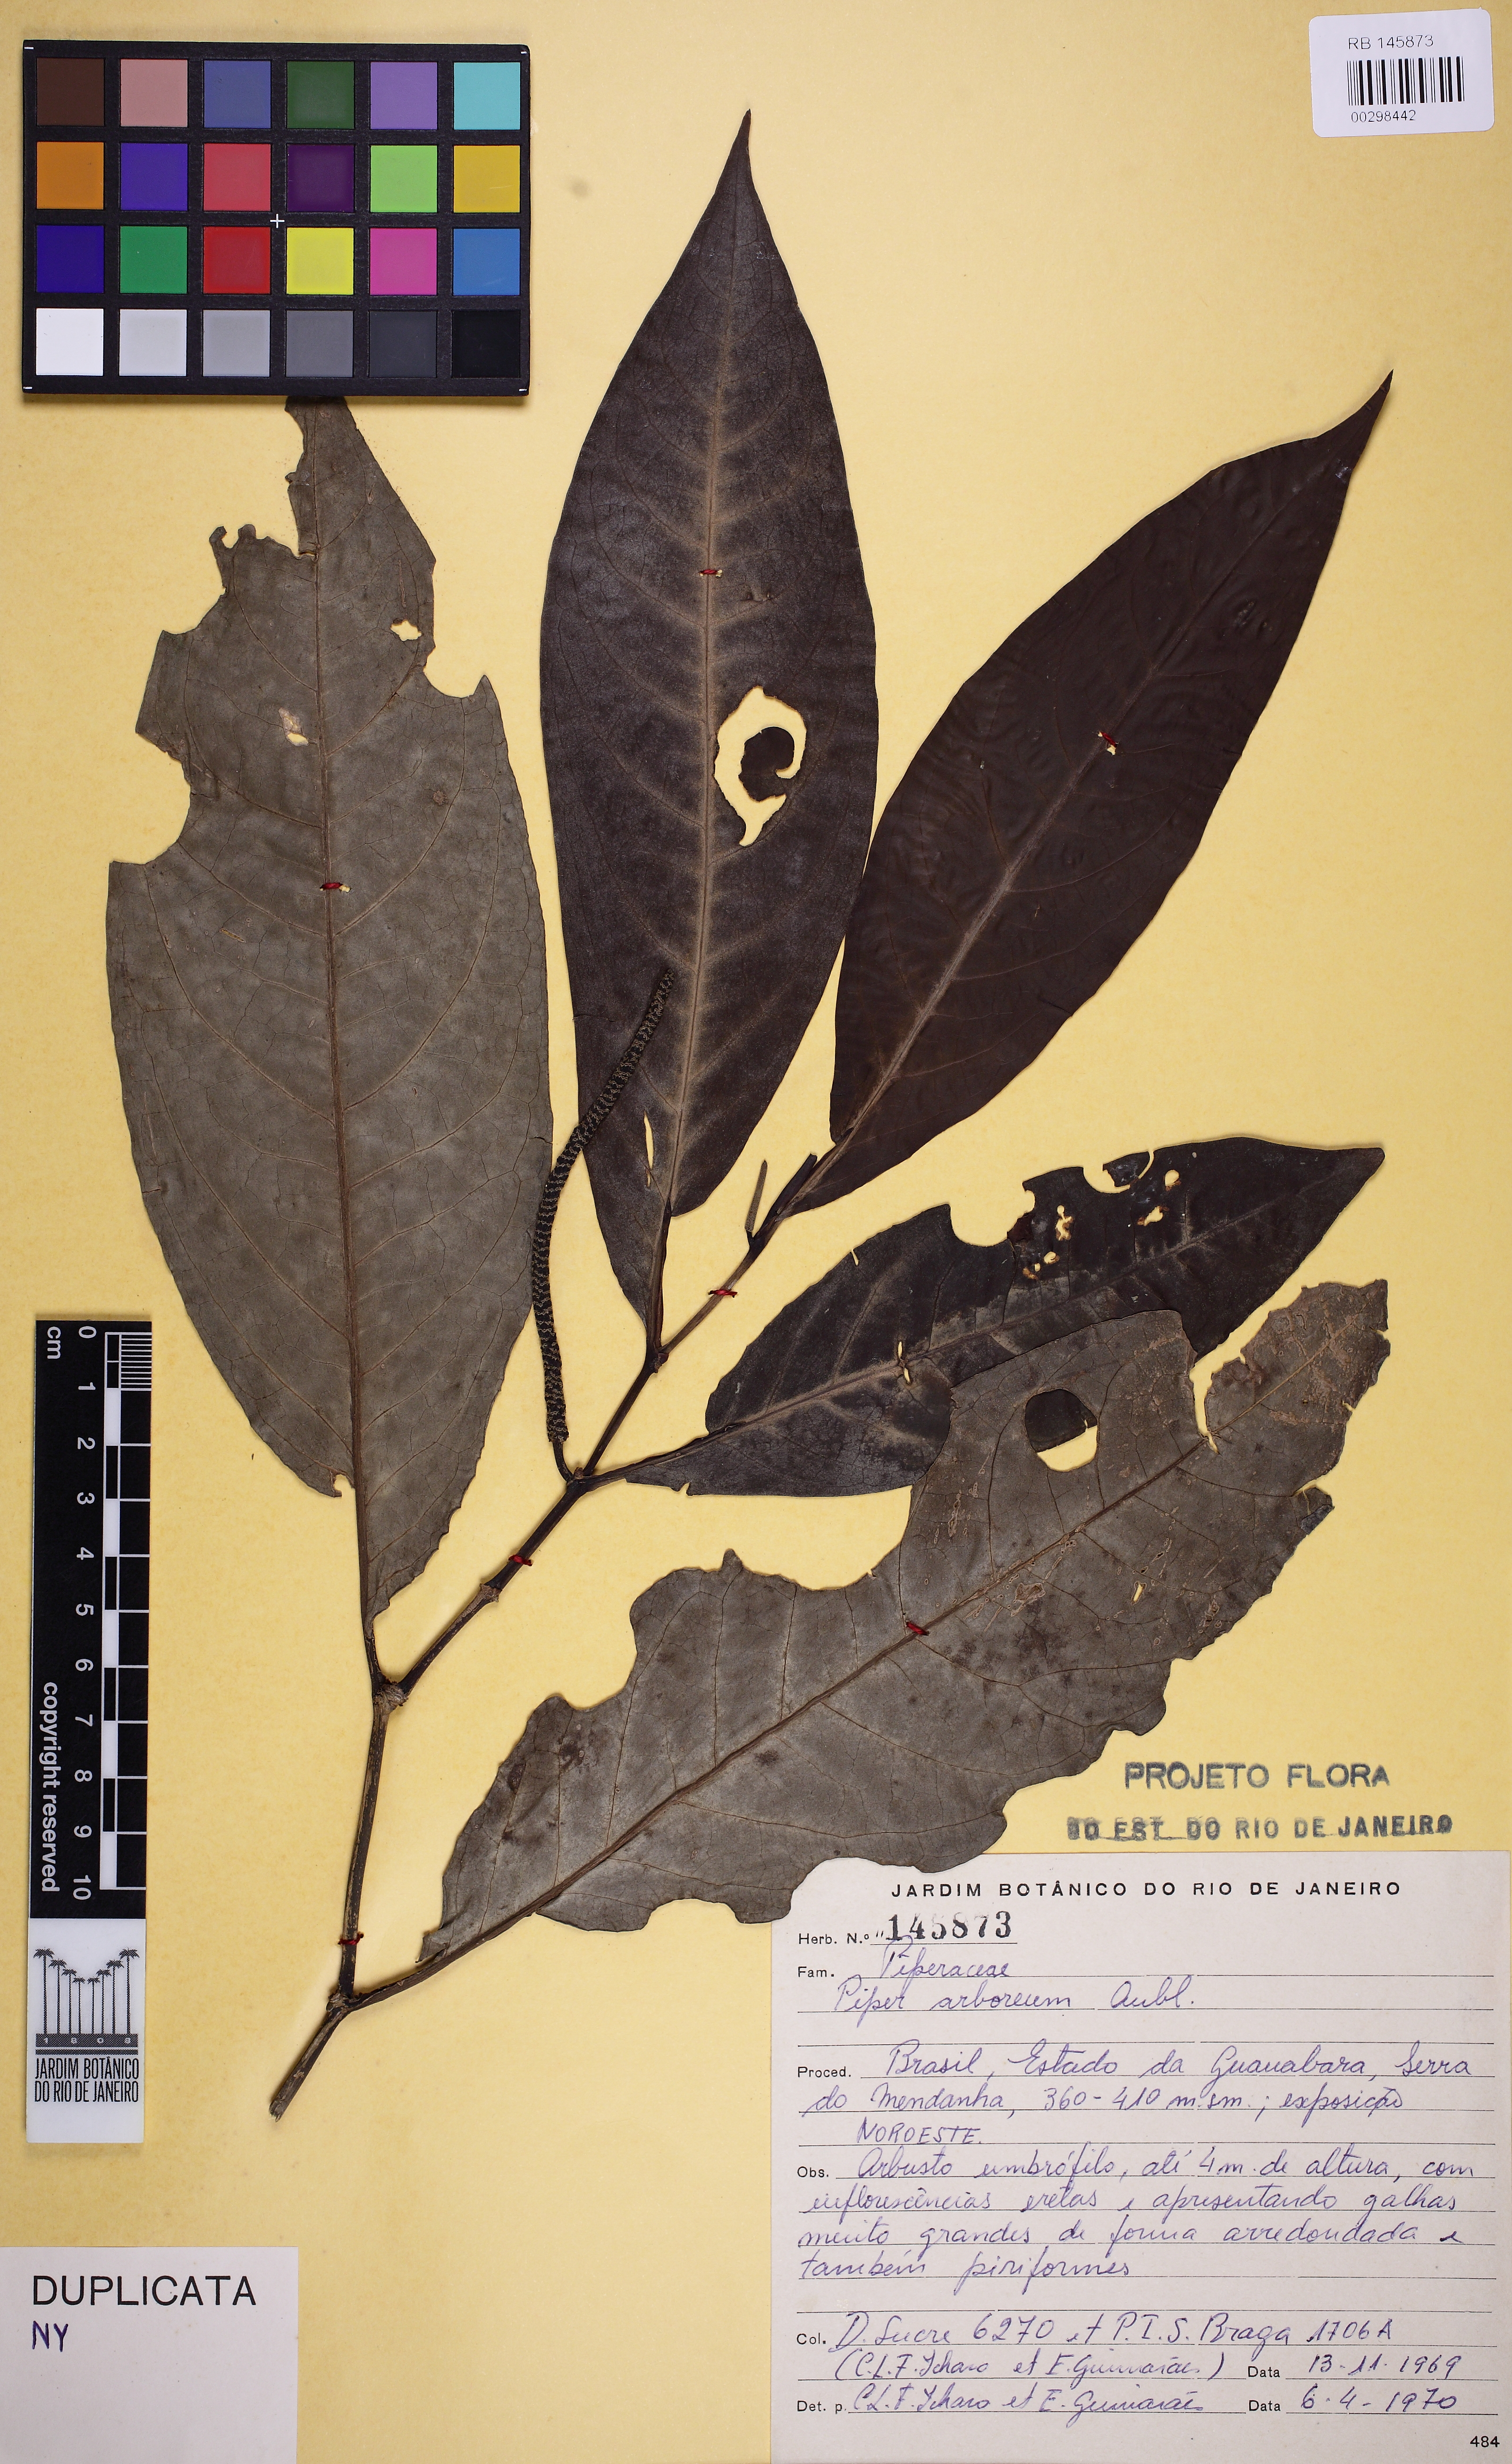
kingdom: Plantae
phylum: Tracheophyta
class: Magnoliopsida
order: Piperales
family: Piperaceae
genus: Piper
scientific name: Piper arboreum
